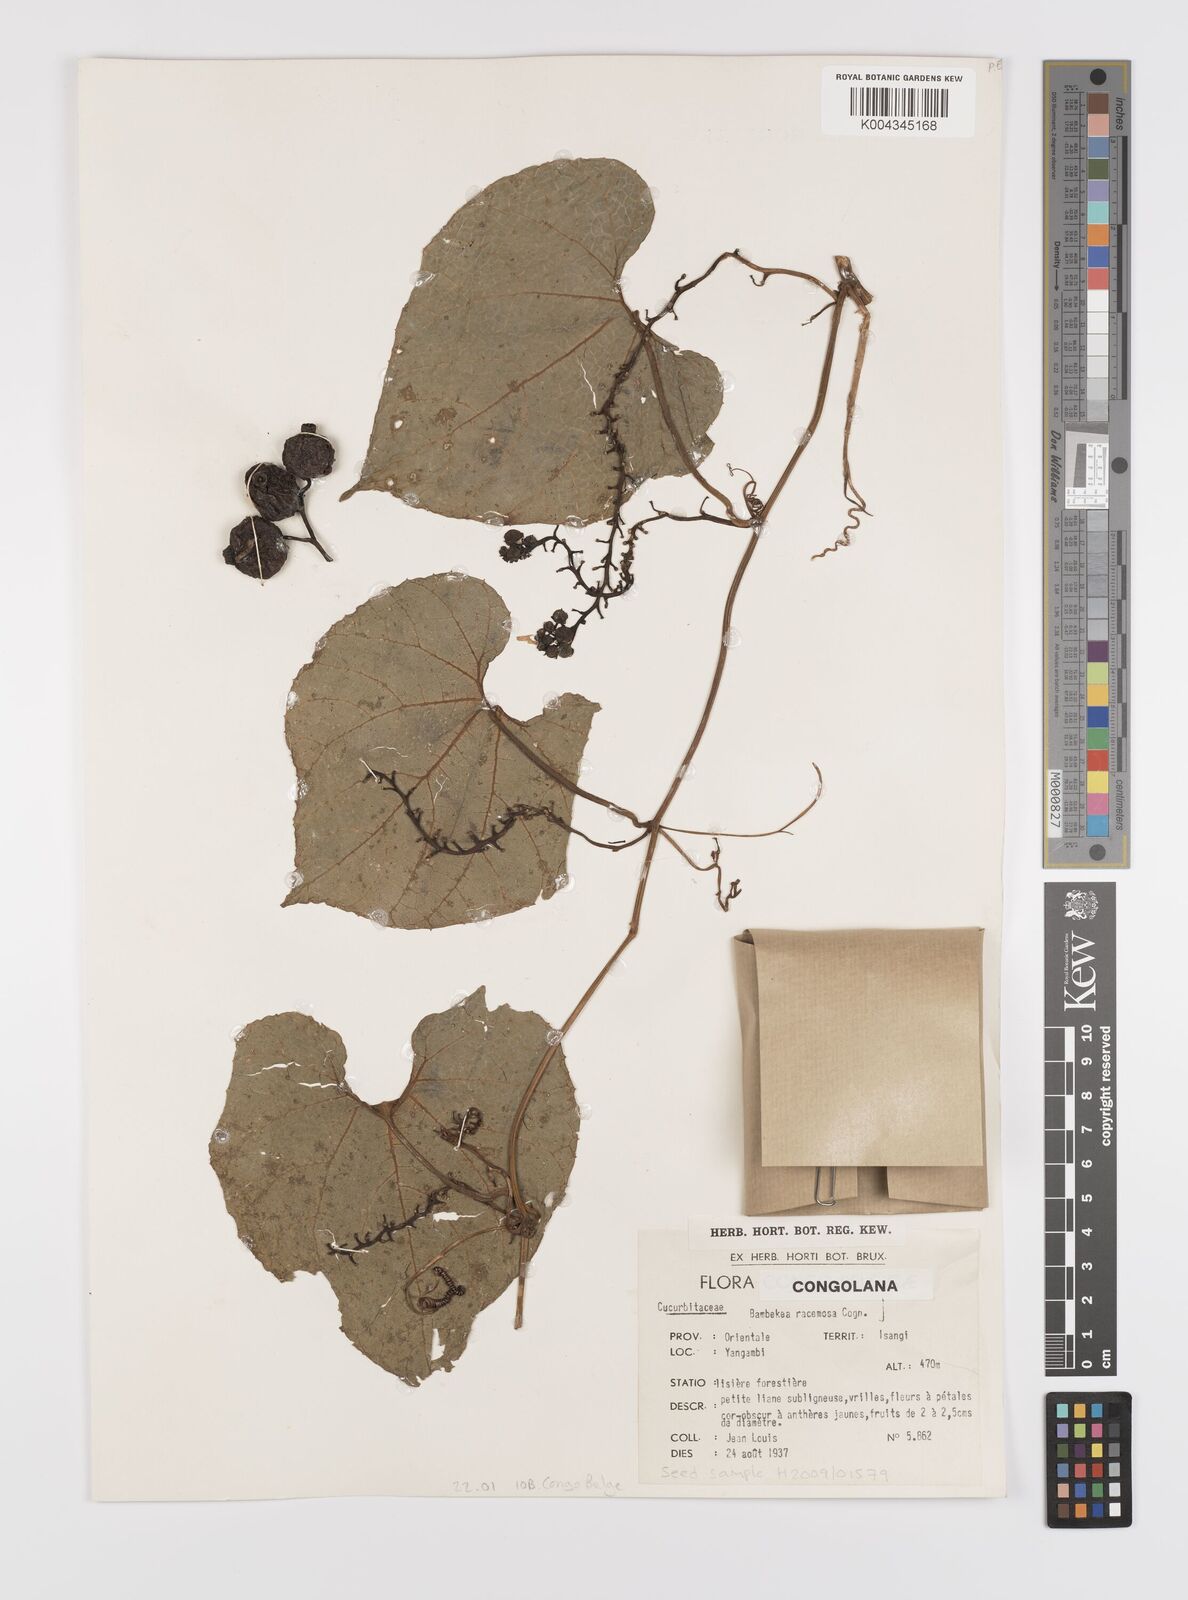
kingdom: Plantae
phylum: Tracheophyta
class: Magnoliopsida
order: Cucurbitales
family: Cucurbitaceae
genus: Bambekea
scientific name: Bambekea racemosa
